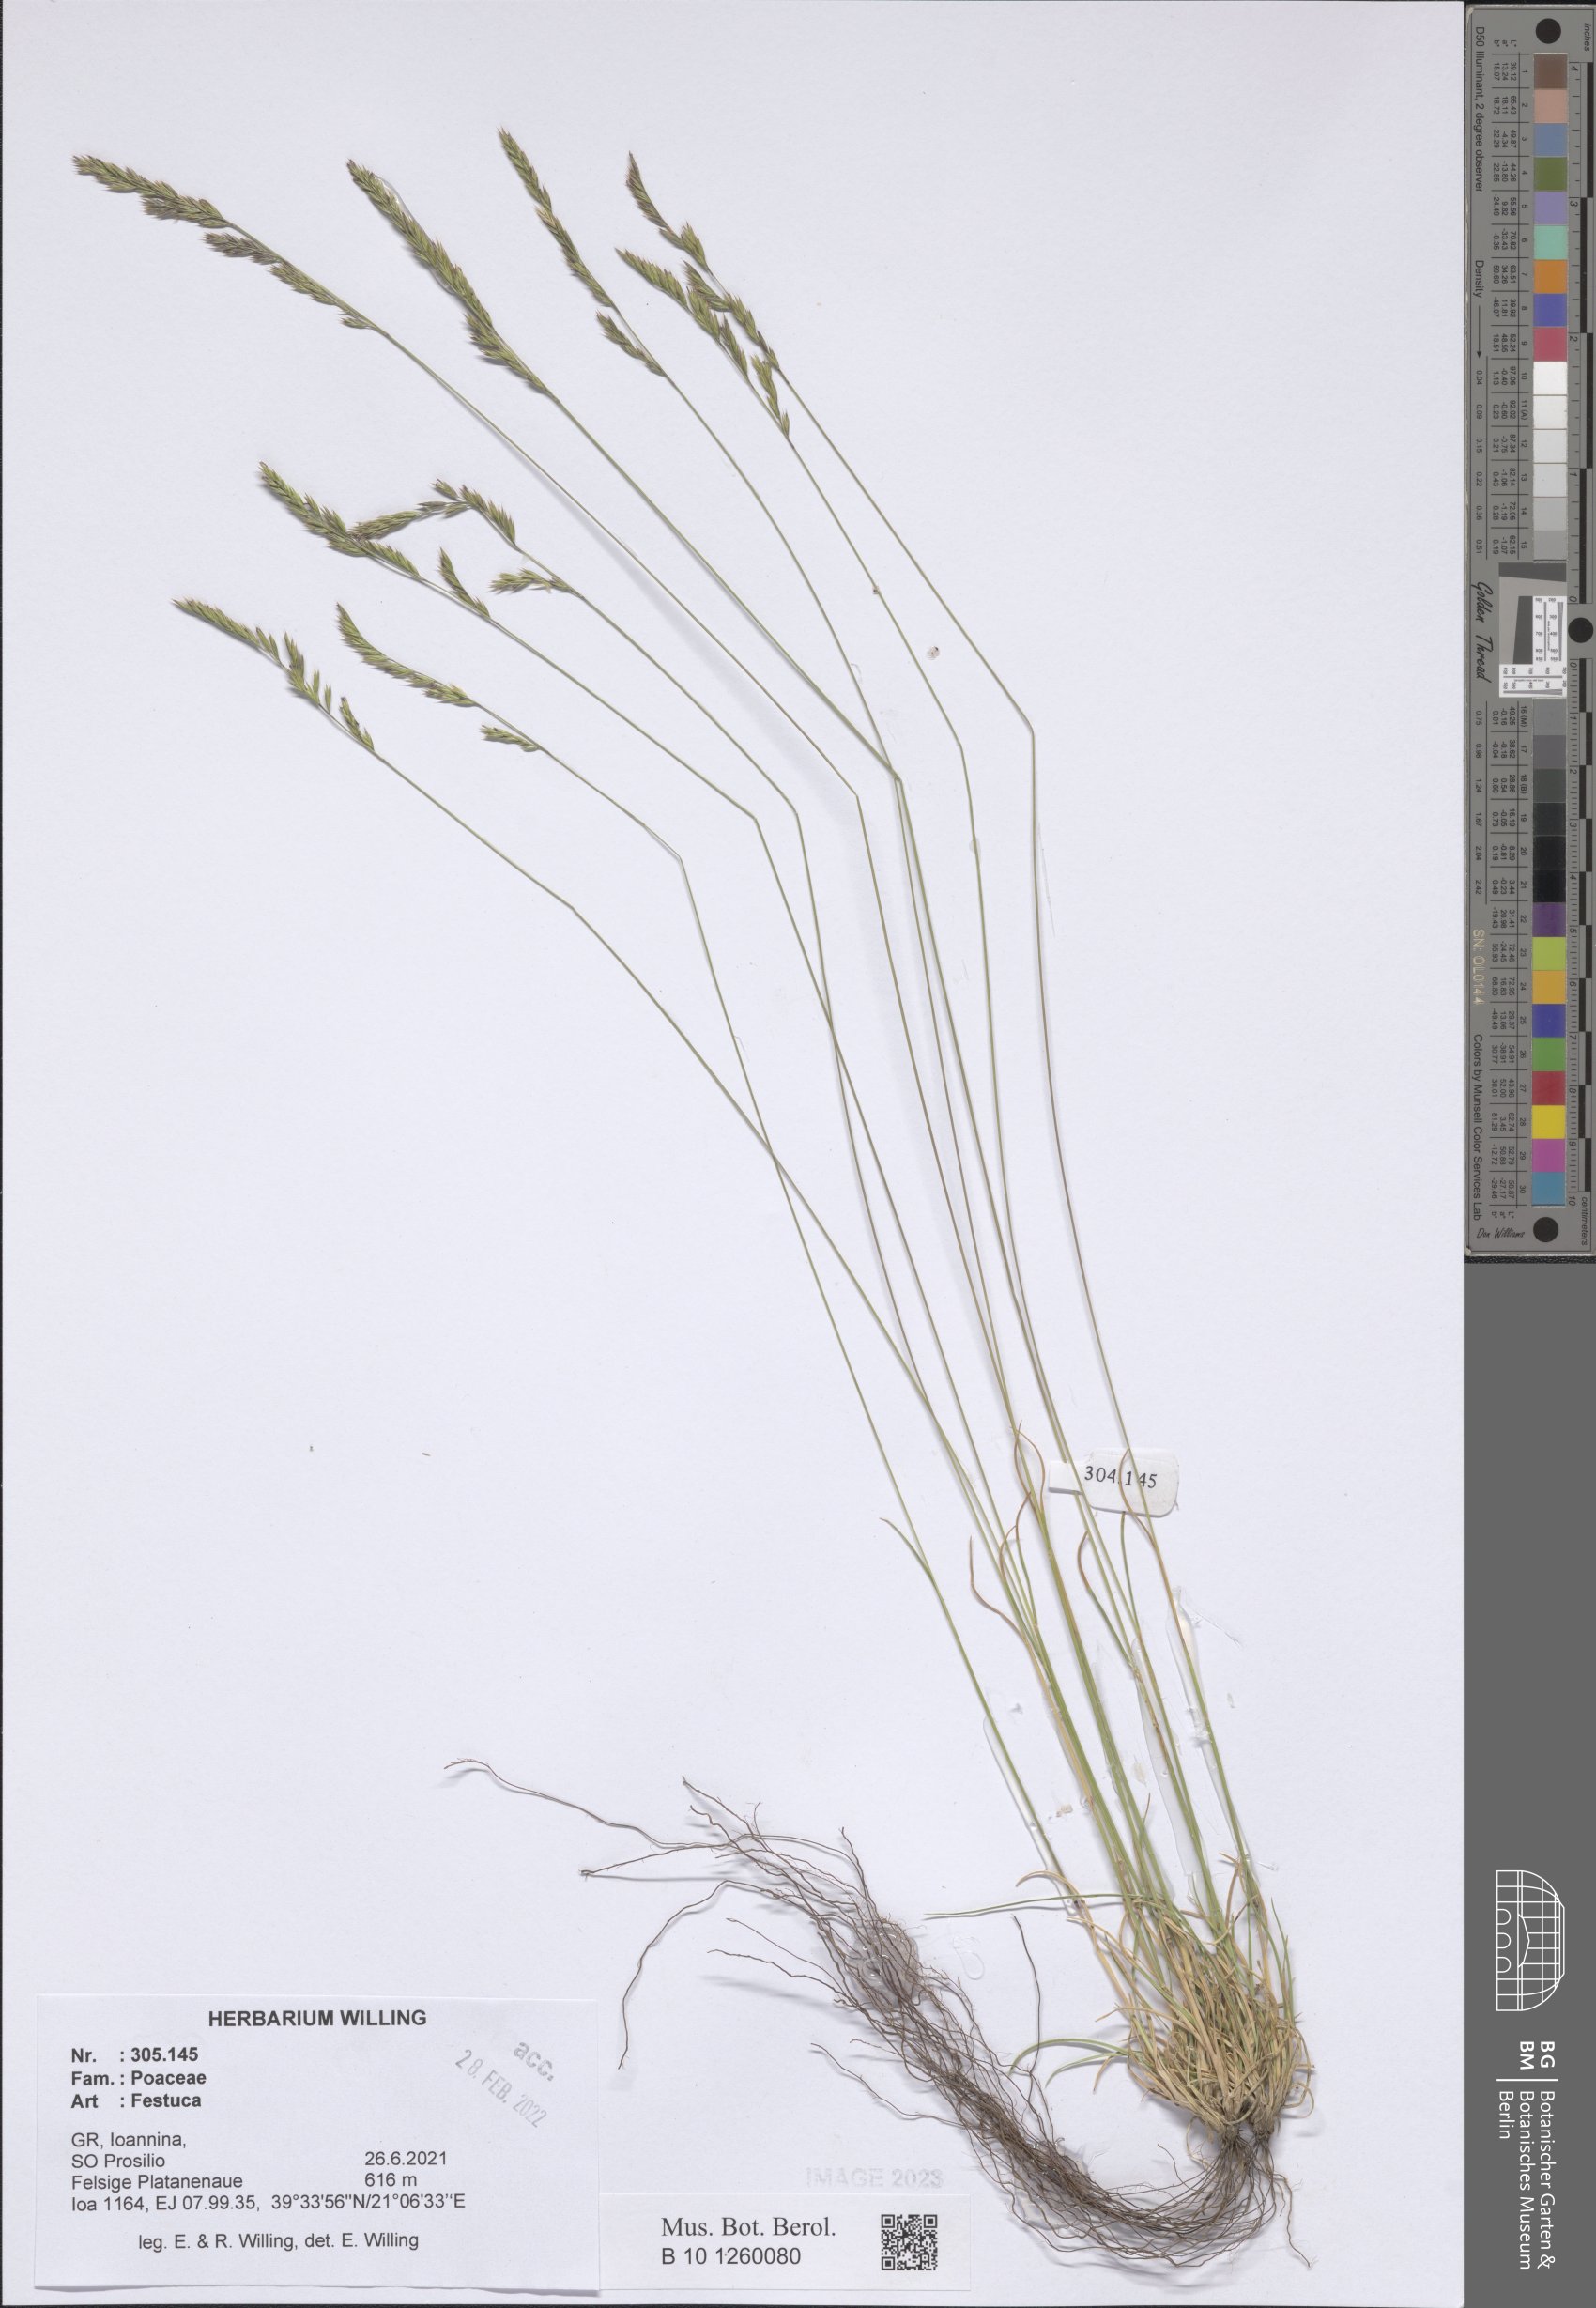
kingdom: Plantae
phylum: Tracheophyta
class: Liliopsida
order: Poales
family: Poaceae
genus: Festuca
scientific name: Festuca
